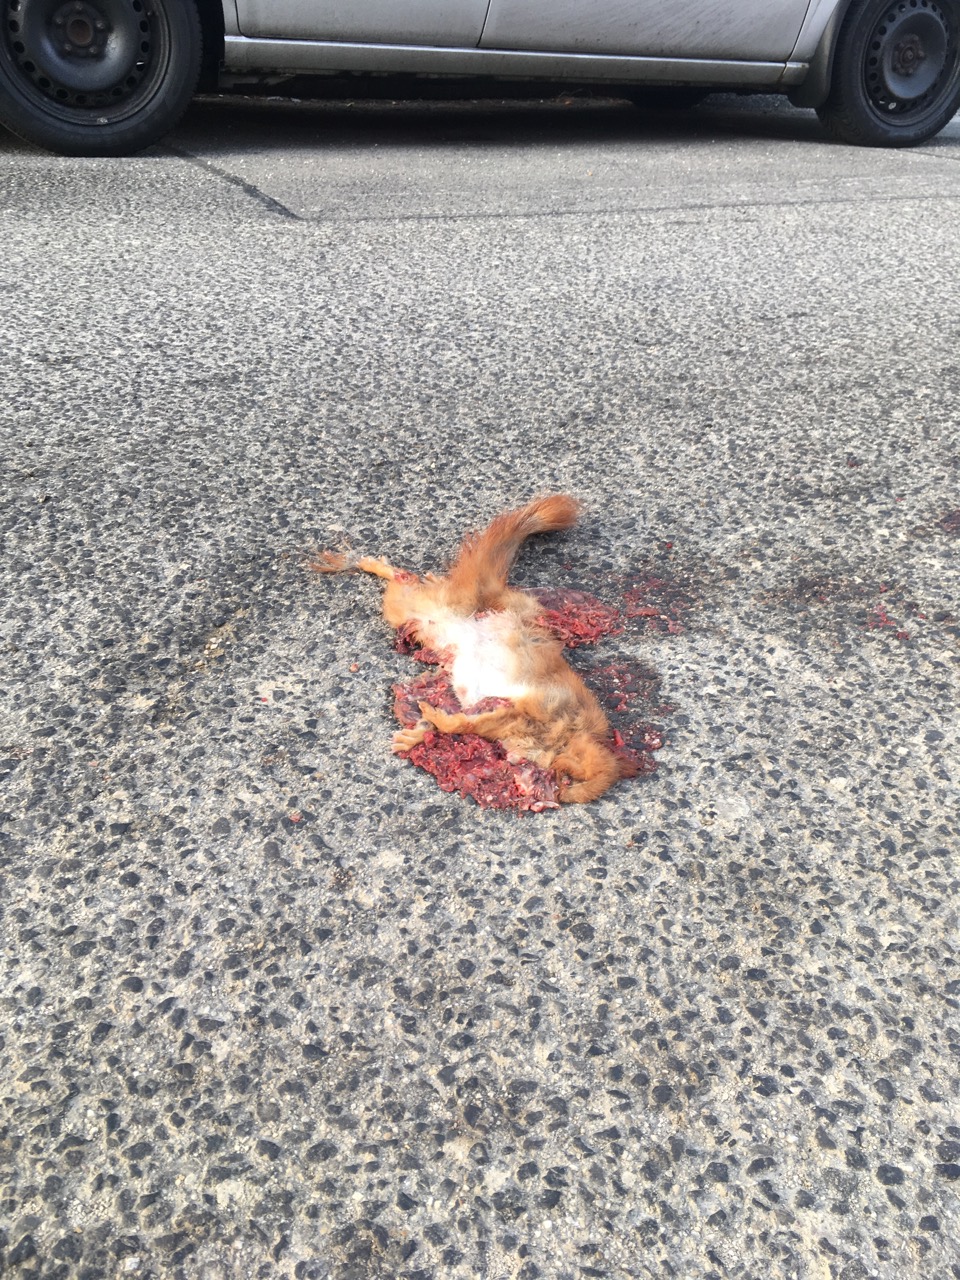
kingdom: Animalia
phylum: Chordata
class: Mammalia
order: Rodentia
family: Sciuridae
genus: Sciurus
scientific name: Sciurus vulgaris
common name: Eurasian red squirrel
